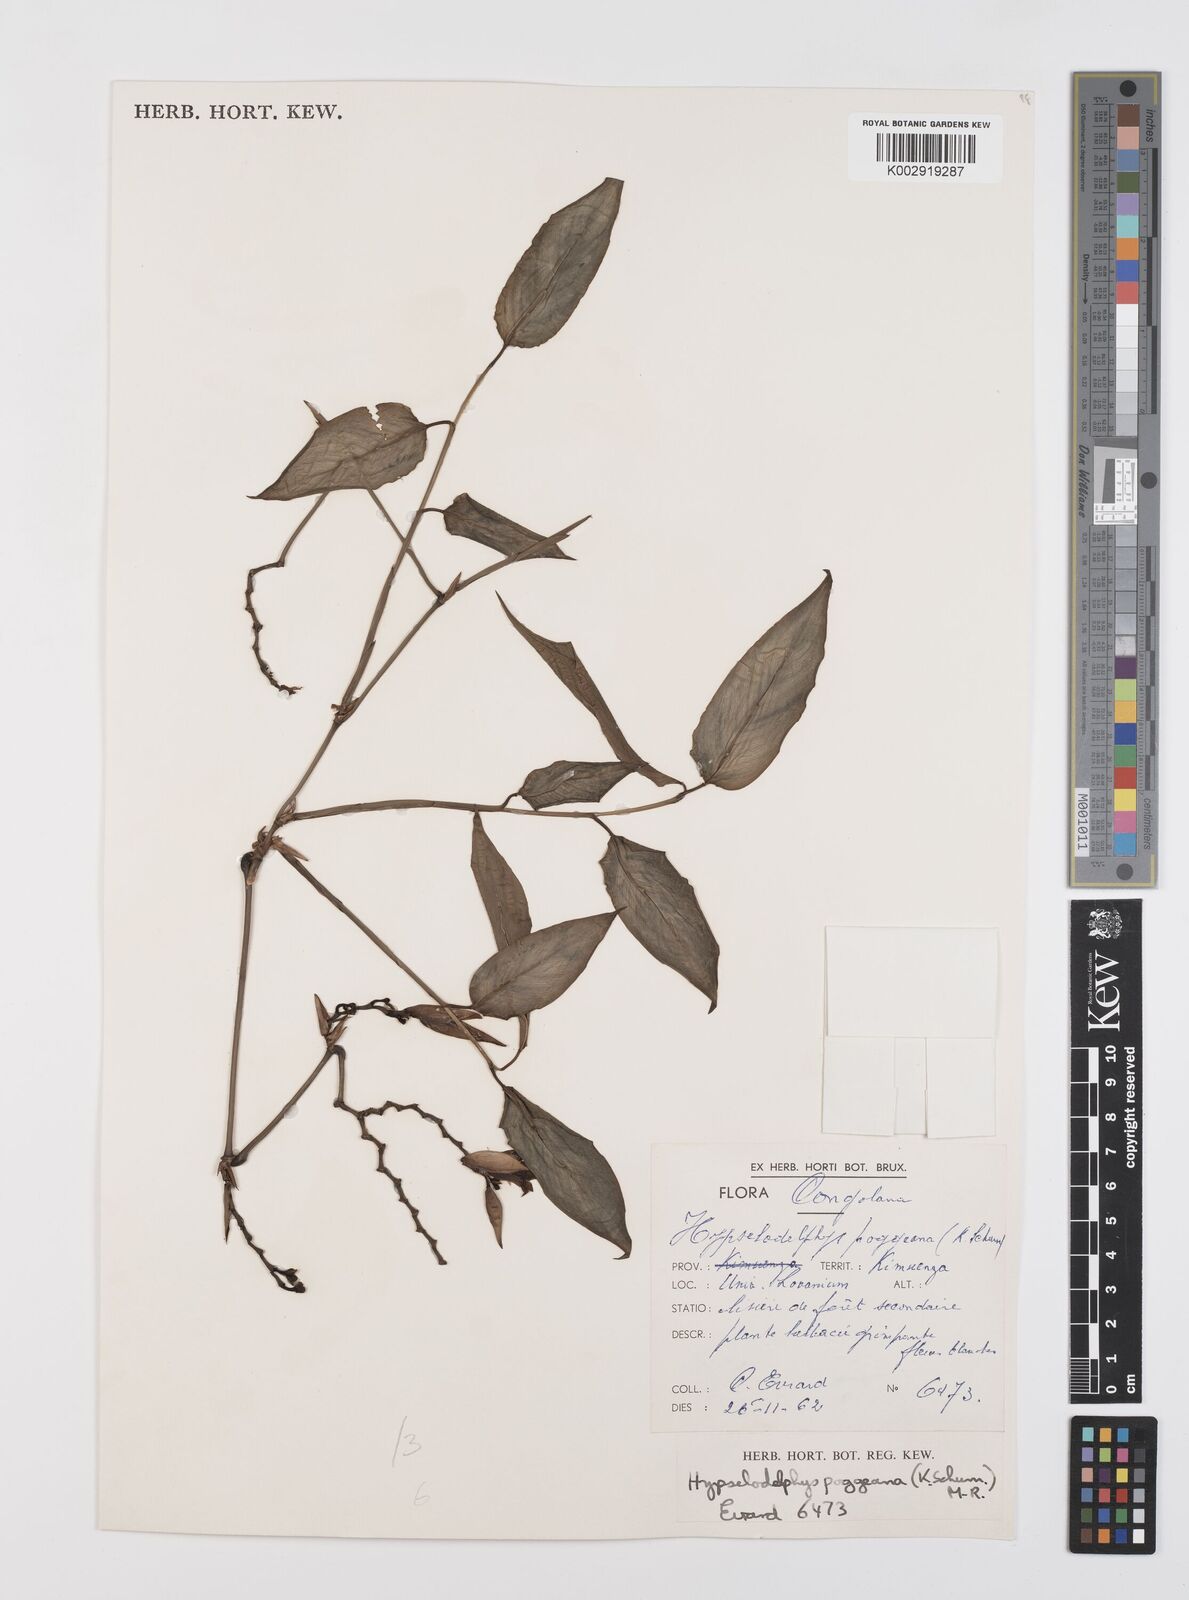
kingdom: Plantae
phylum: Tracheophyta
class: Liliopsida
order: Zingiberales
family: Marantaceae
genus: Hypselodelphys
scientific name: Hypselodelphys poggeana
